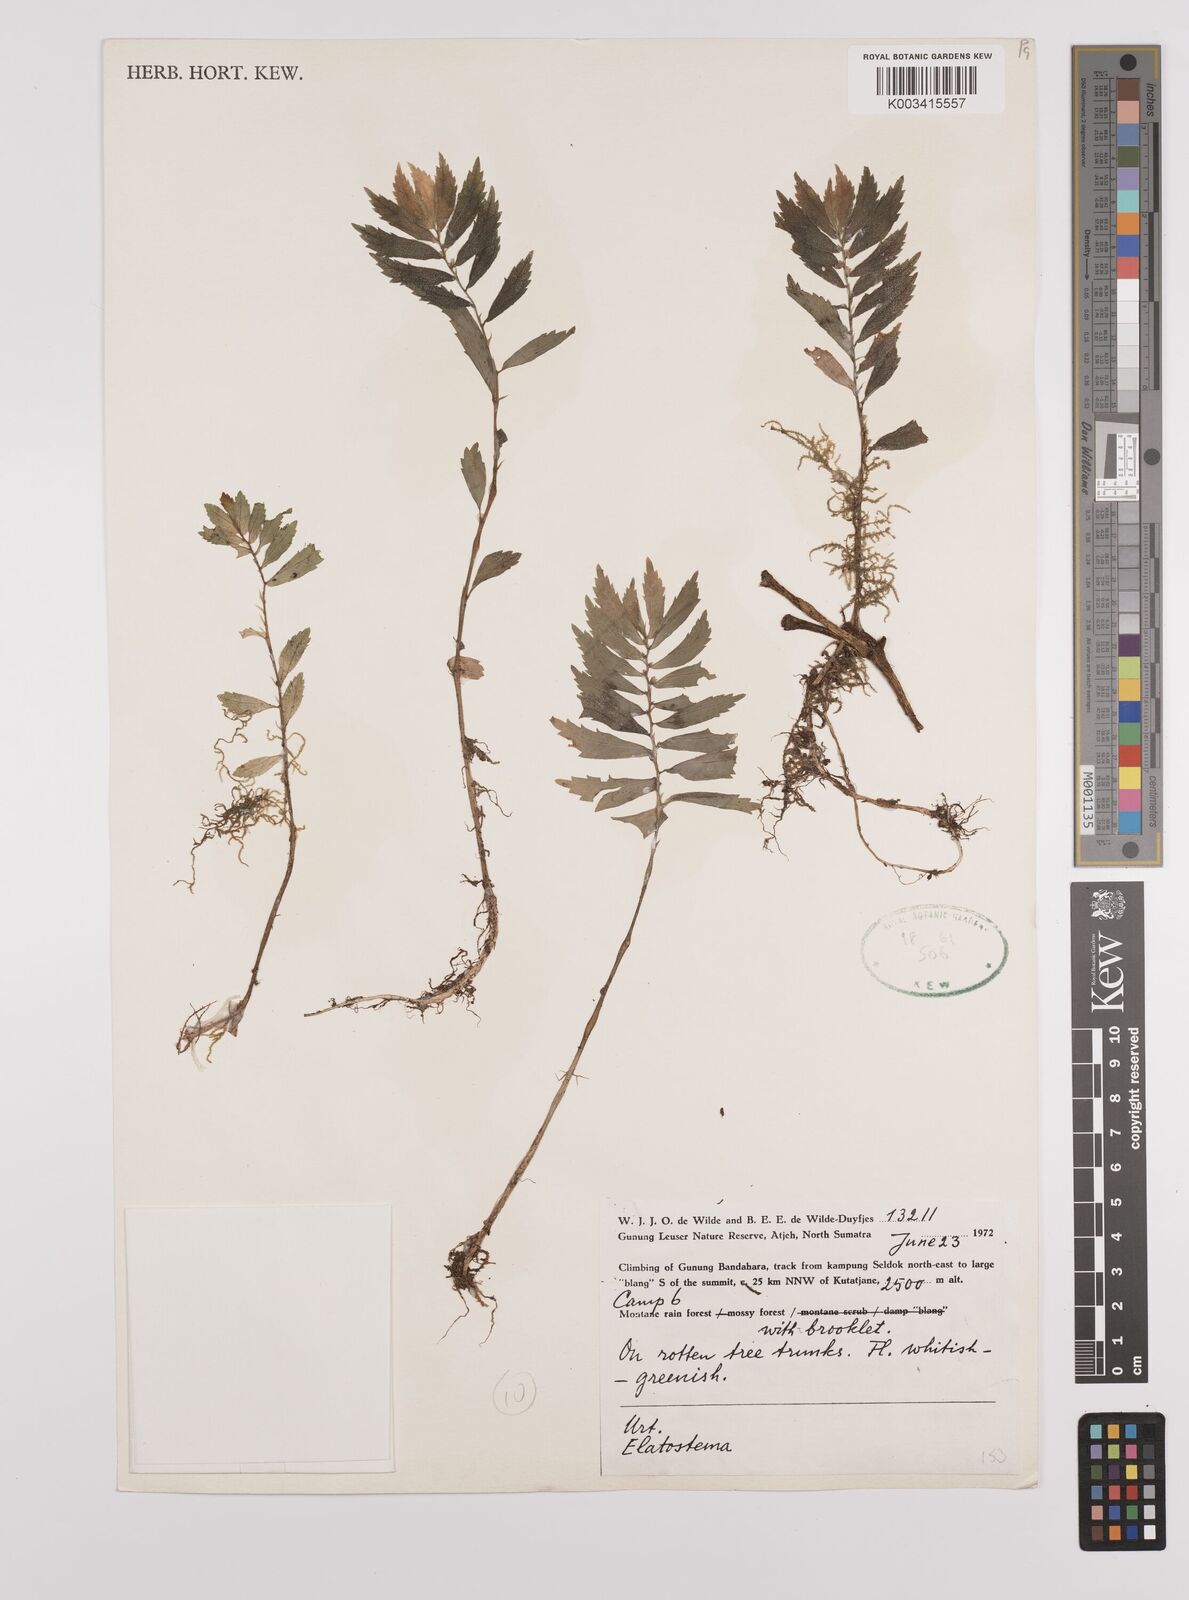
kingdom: Plantae
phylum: Tracheophyta
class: Magnoliopsida
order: Rosales
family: Urticaceae
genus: Elatostema
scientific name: Elatostema
